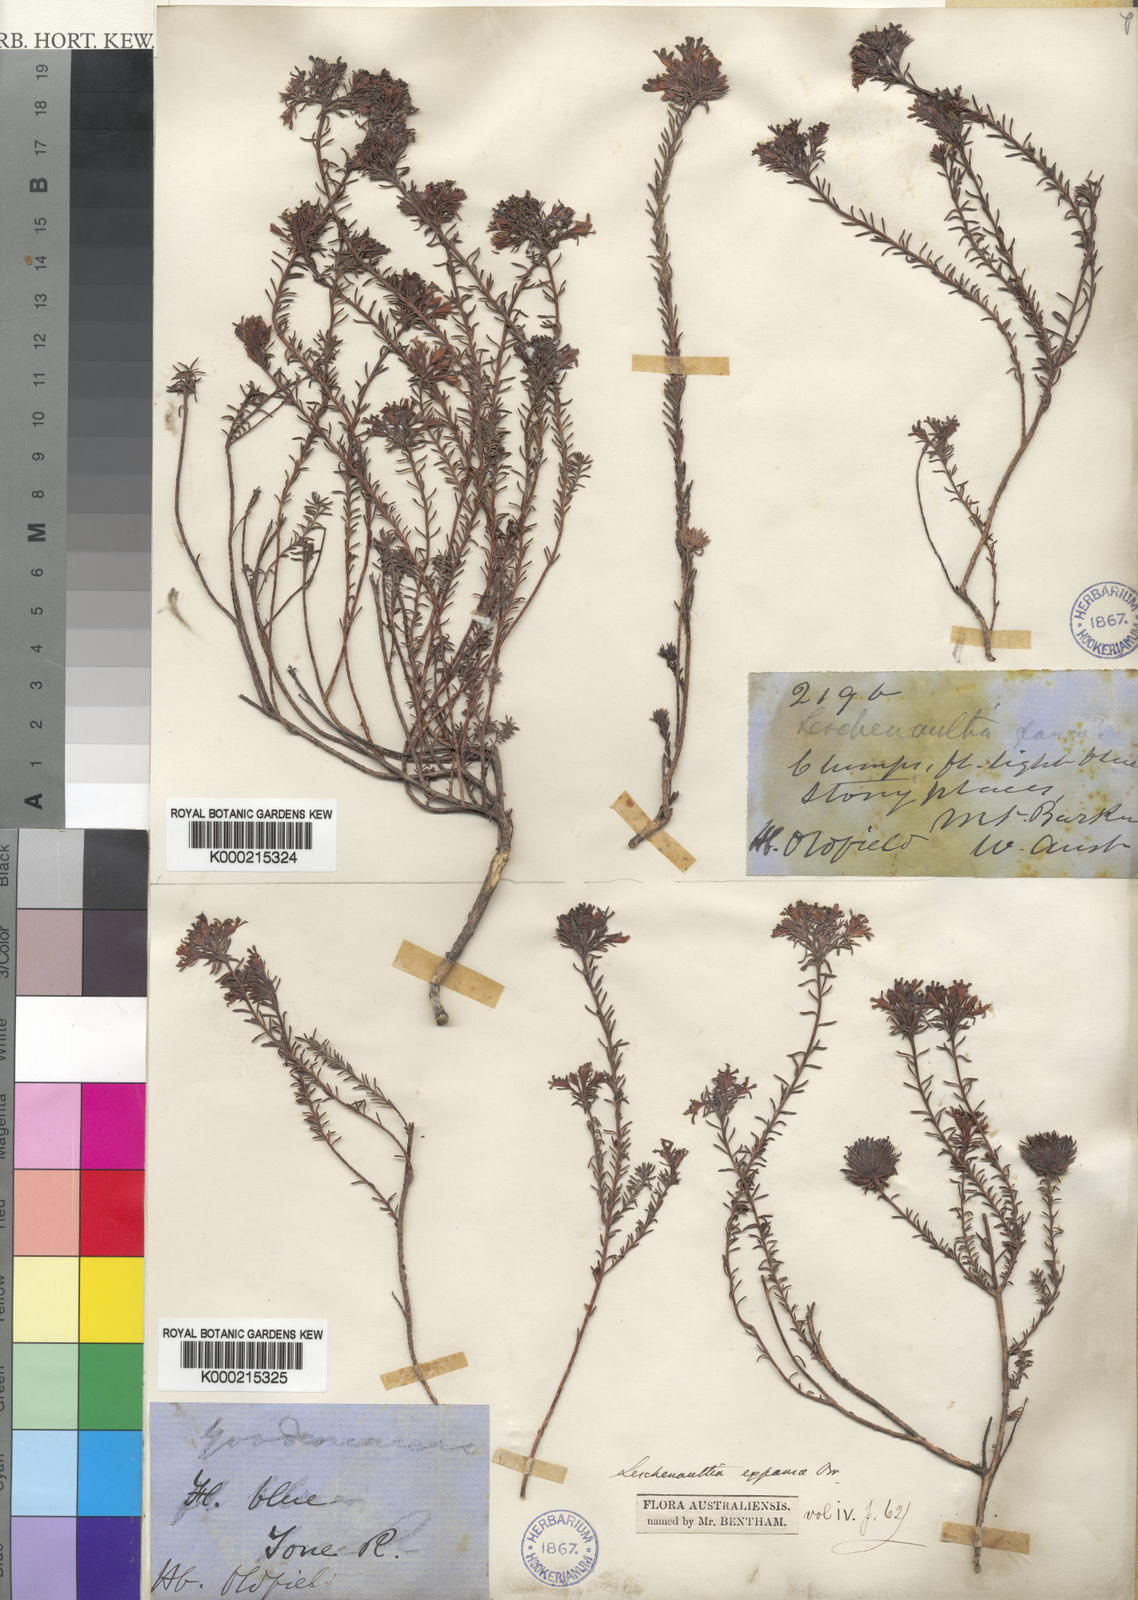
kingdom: Plantae
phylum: Tracheophyta
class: Magnoliopsida
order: Asterales
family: Goodeniaceae
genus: Leschenaultia
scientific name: Leschenaultia expansa
